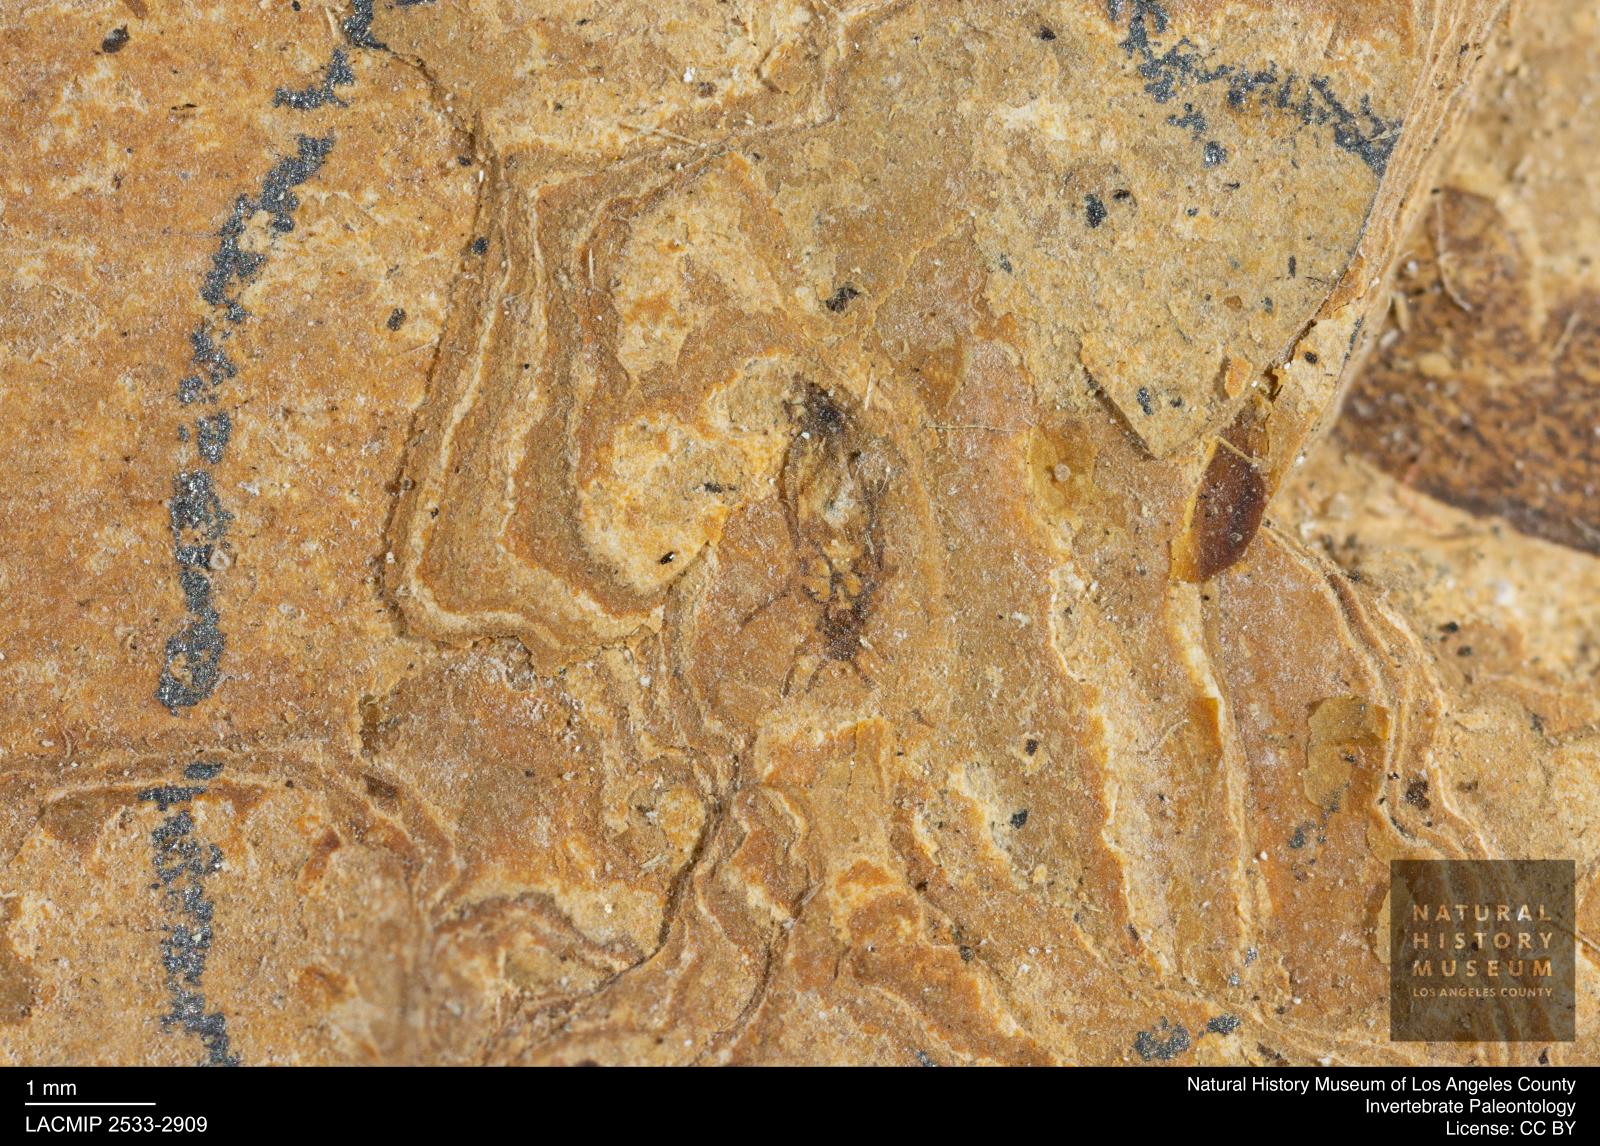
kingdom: Animalia
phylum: Arthropoda
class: Insecta
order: Hemiptera
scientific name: Hemiptera
